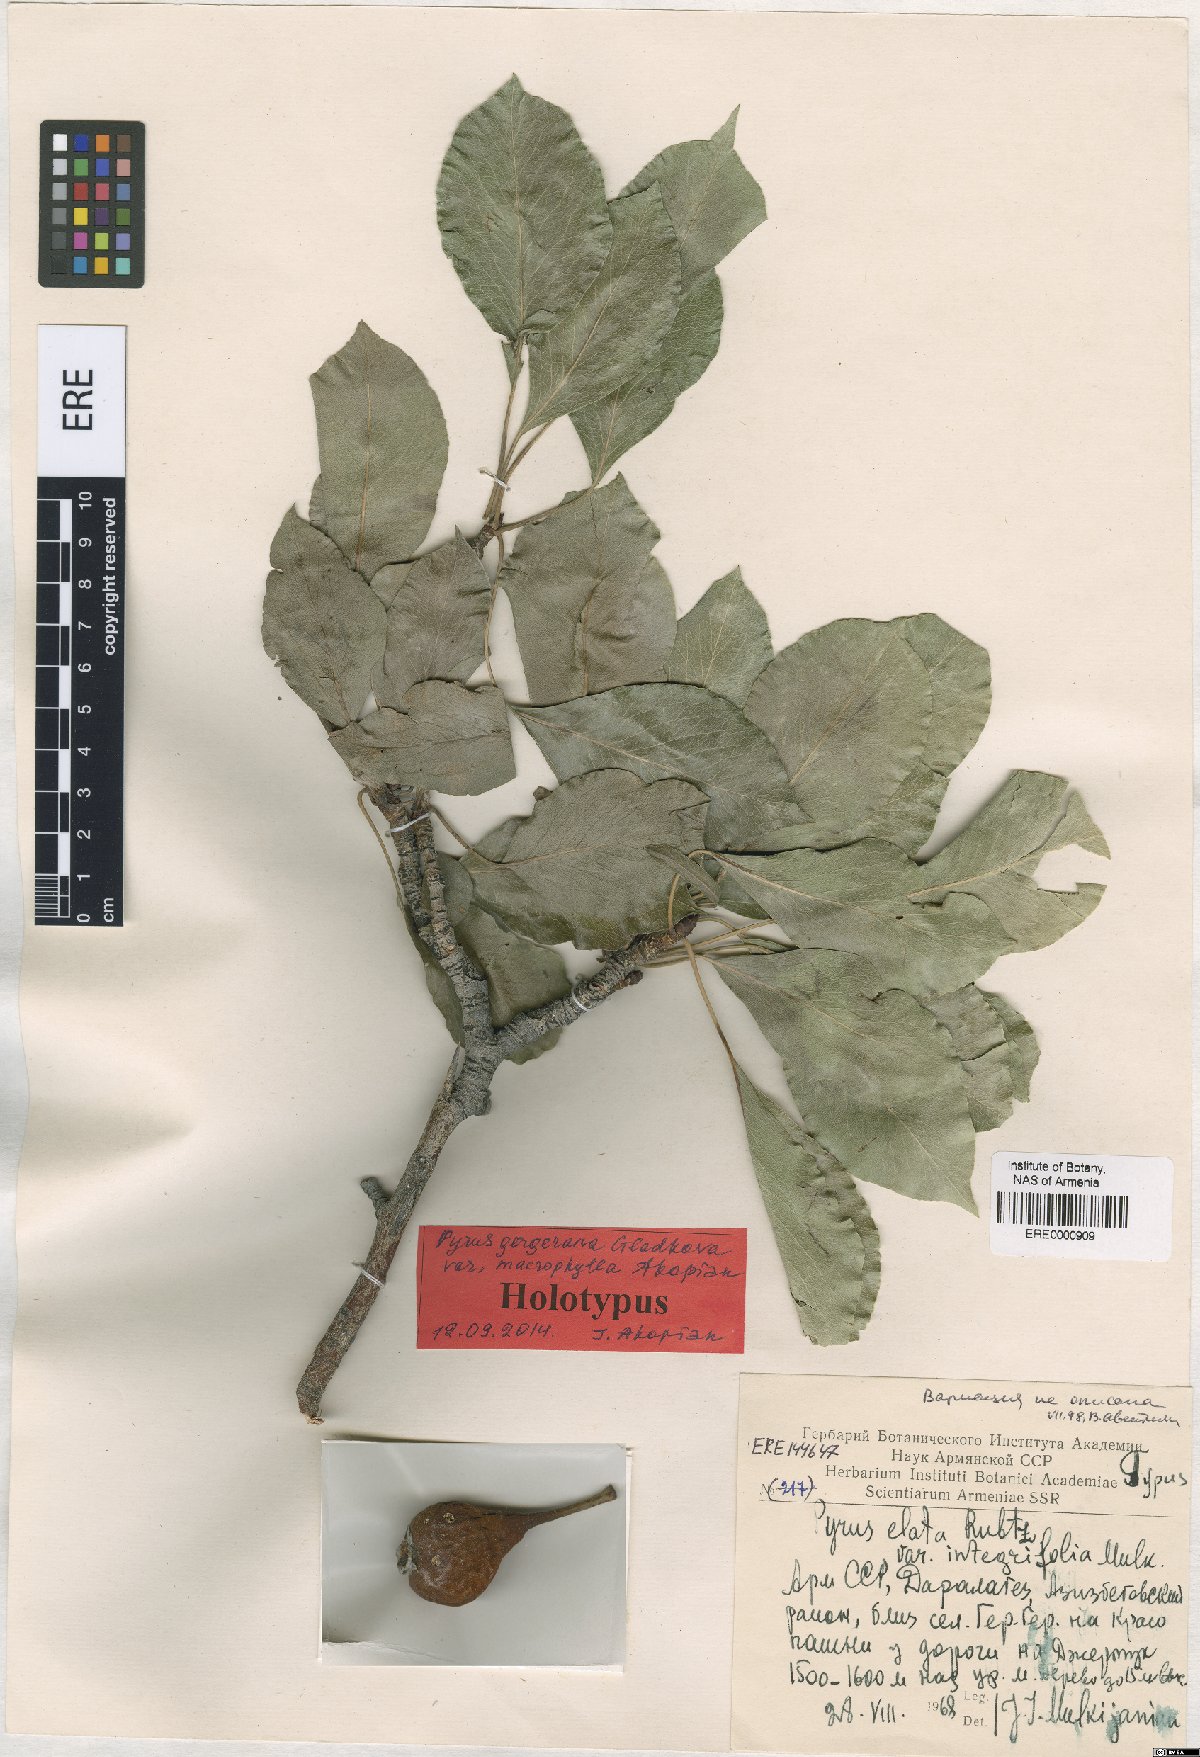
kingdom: Plantae
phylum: Tracheophyta
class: Magnoliopsida
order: Rosales
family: Rosaceae
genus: Pyrus
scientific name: Pyrus gergerana
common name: Gergeranian pear
